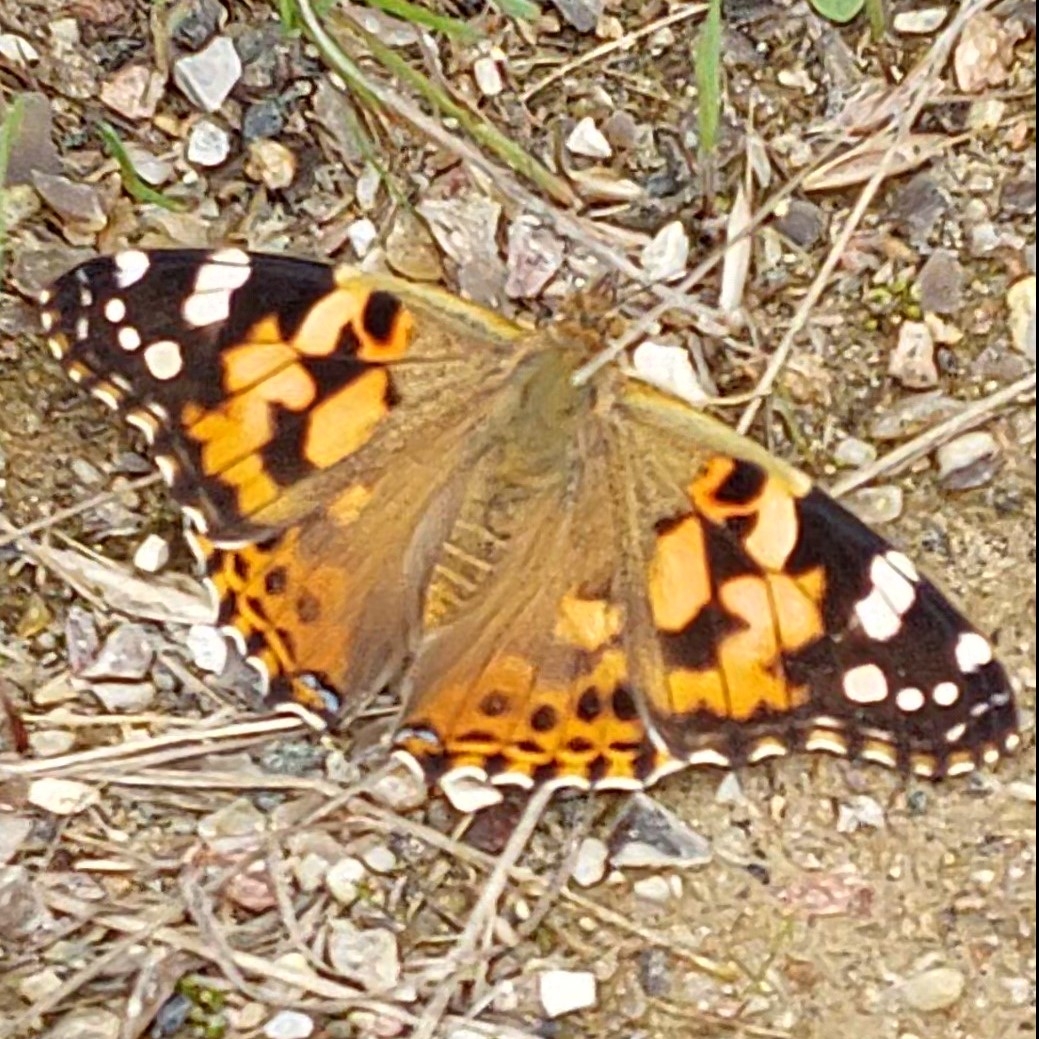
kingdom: Animalia
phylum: Arthropoda
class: Insecta
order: Lepidoptera
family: Nymphalidae
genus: Vanessa
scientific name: Vanessa cardui
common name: Tidselsommerfugl
